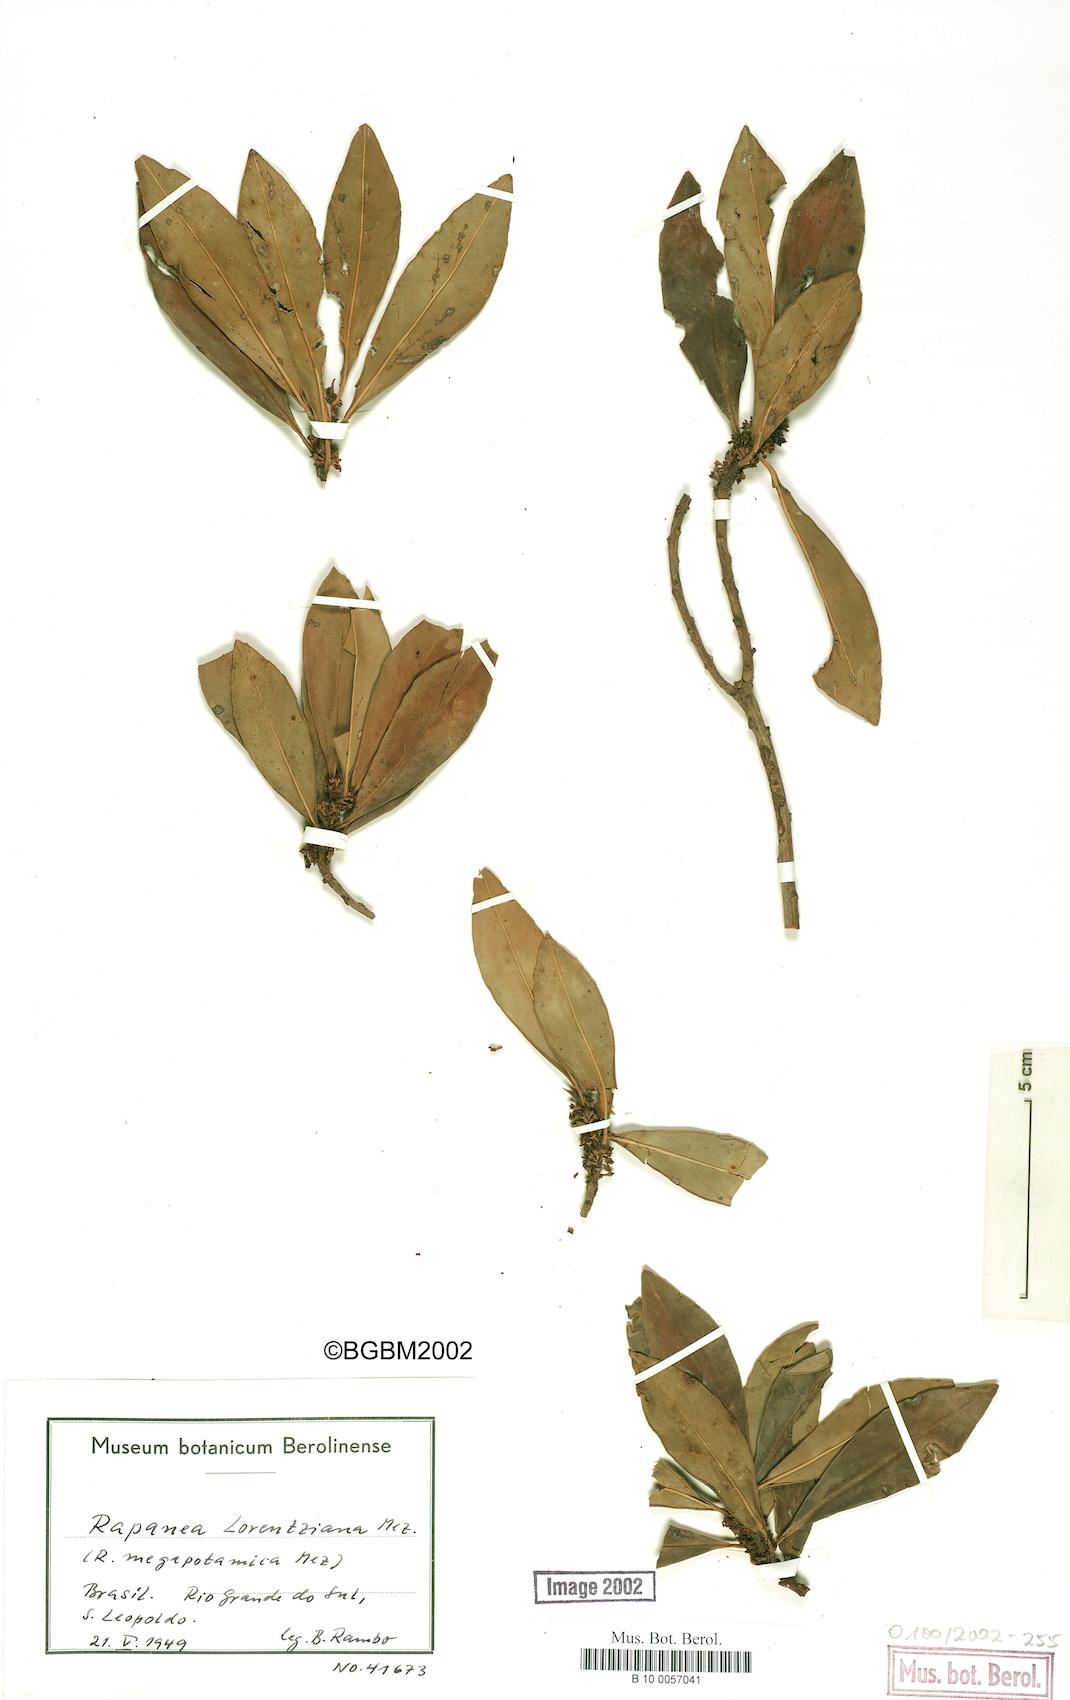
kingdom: Plantae
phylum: Tracheophyta
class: Magnoliopsida
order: Ericales
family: Primulaceae
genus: Myrsine
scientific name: Myrsine lorentziana
